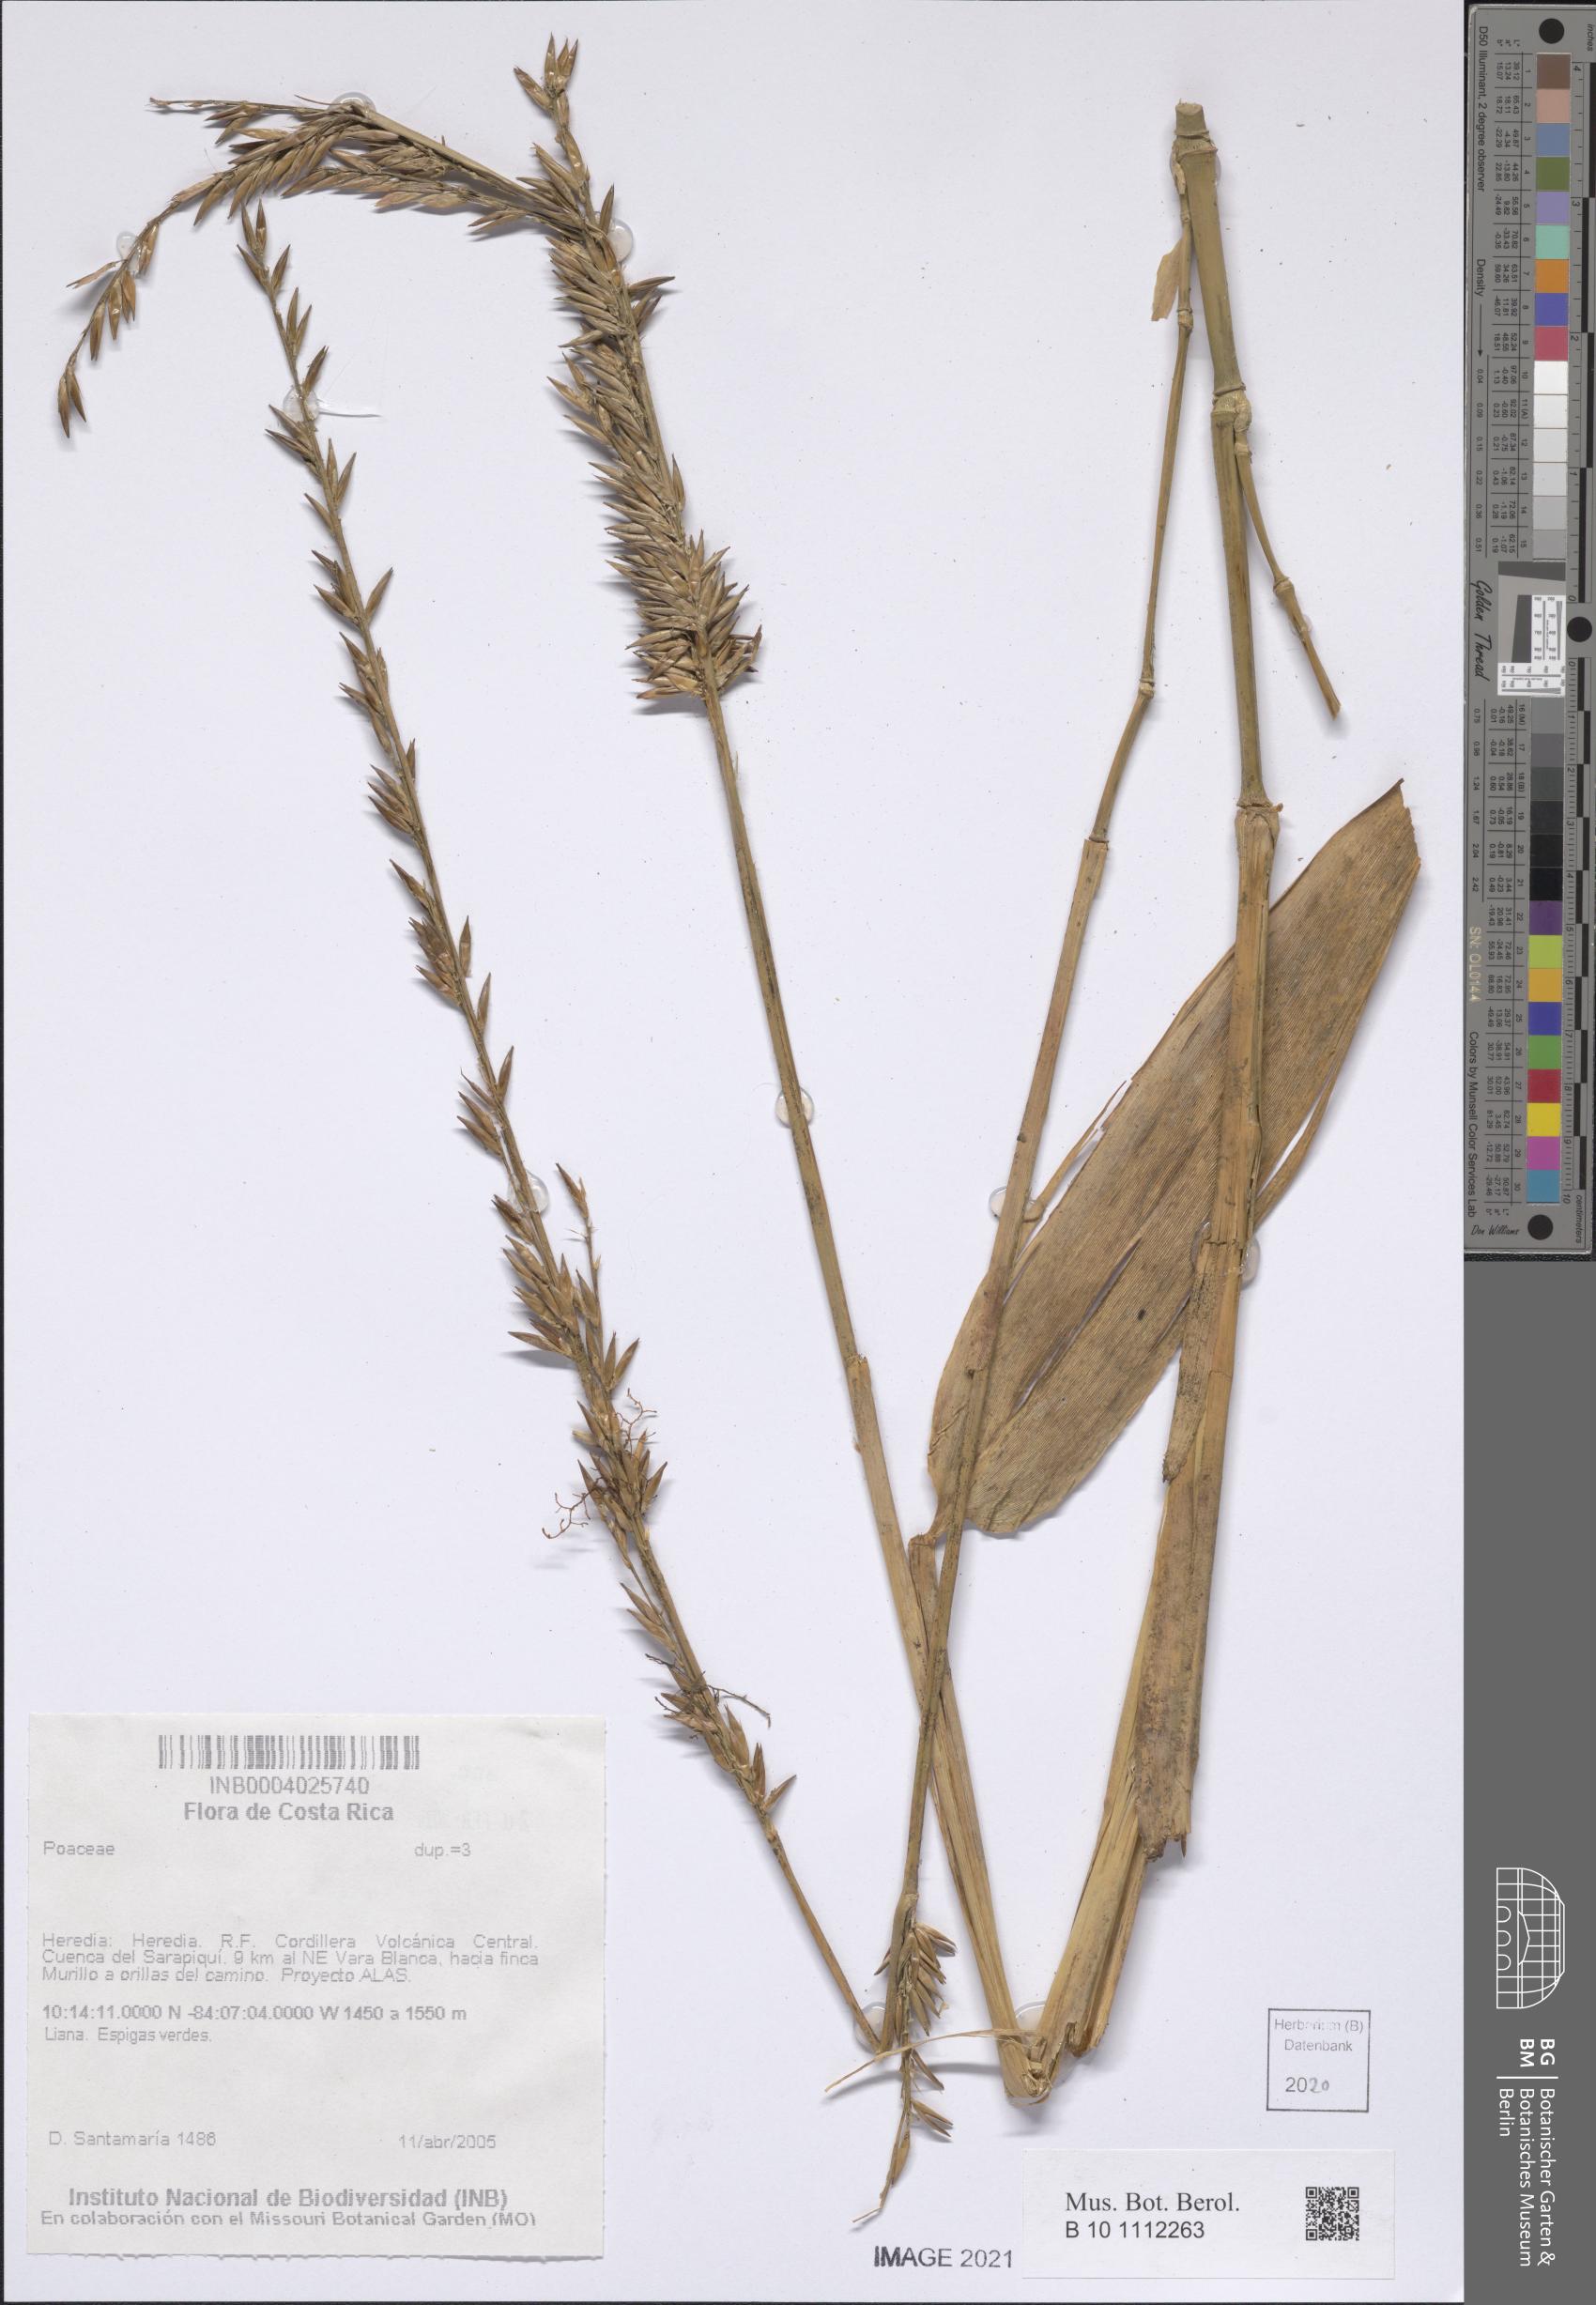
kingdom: Plantae
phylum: Tracheophyta
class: Liliopsida
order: Poales
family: Poaceae
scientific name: Poaceae
